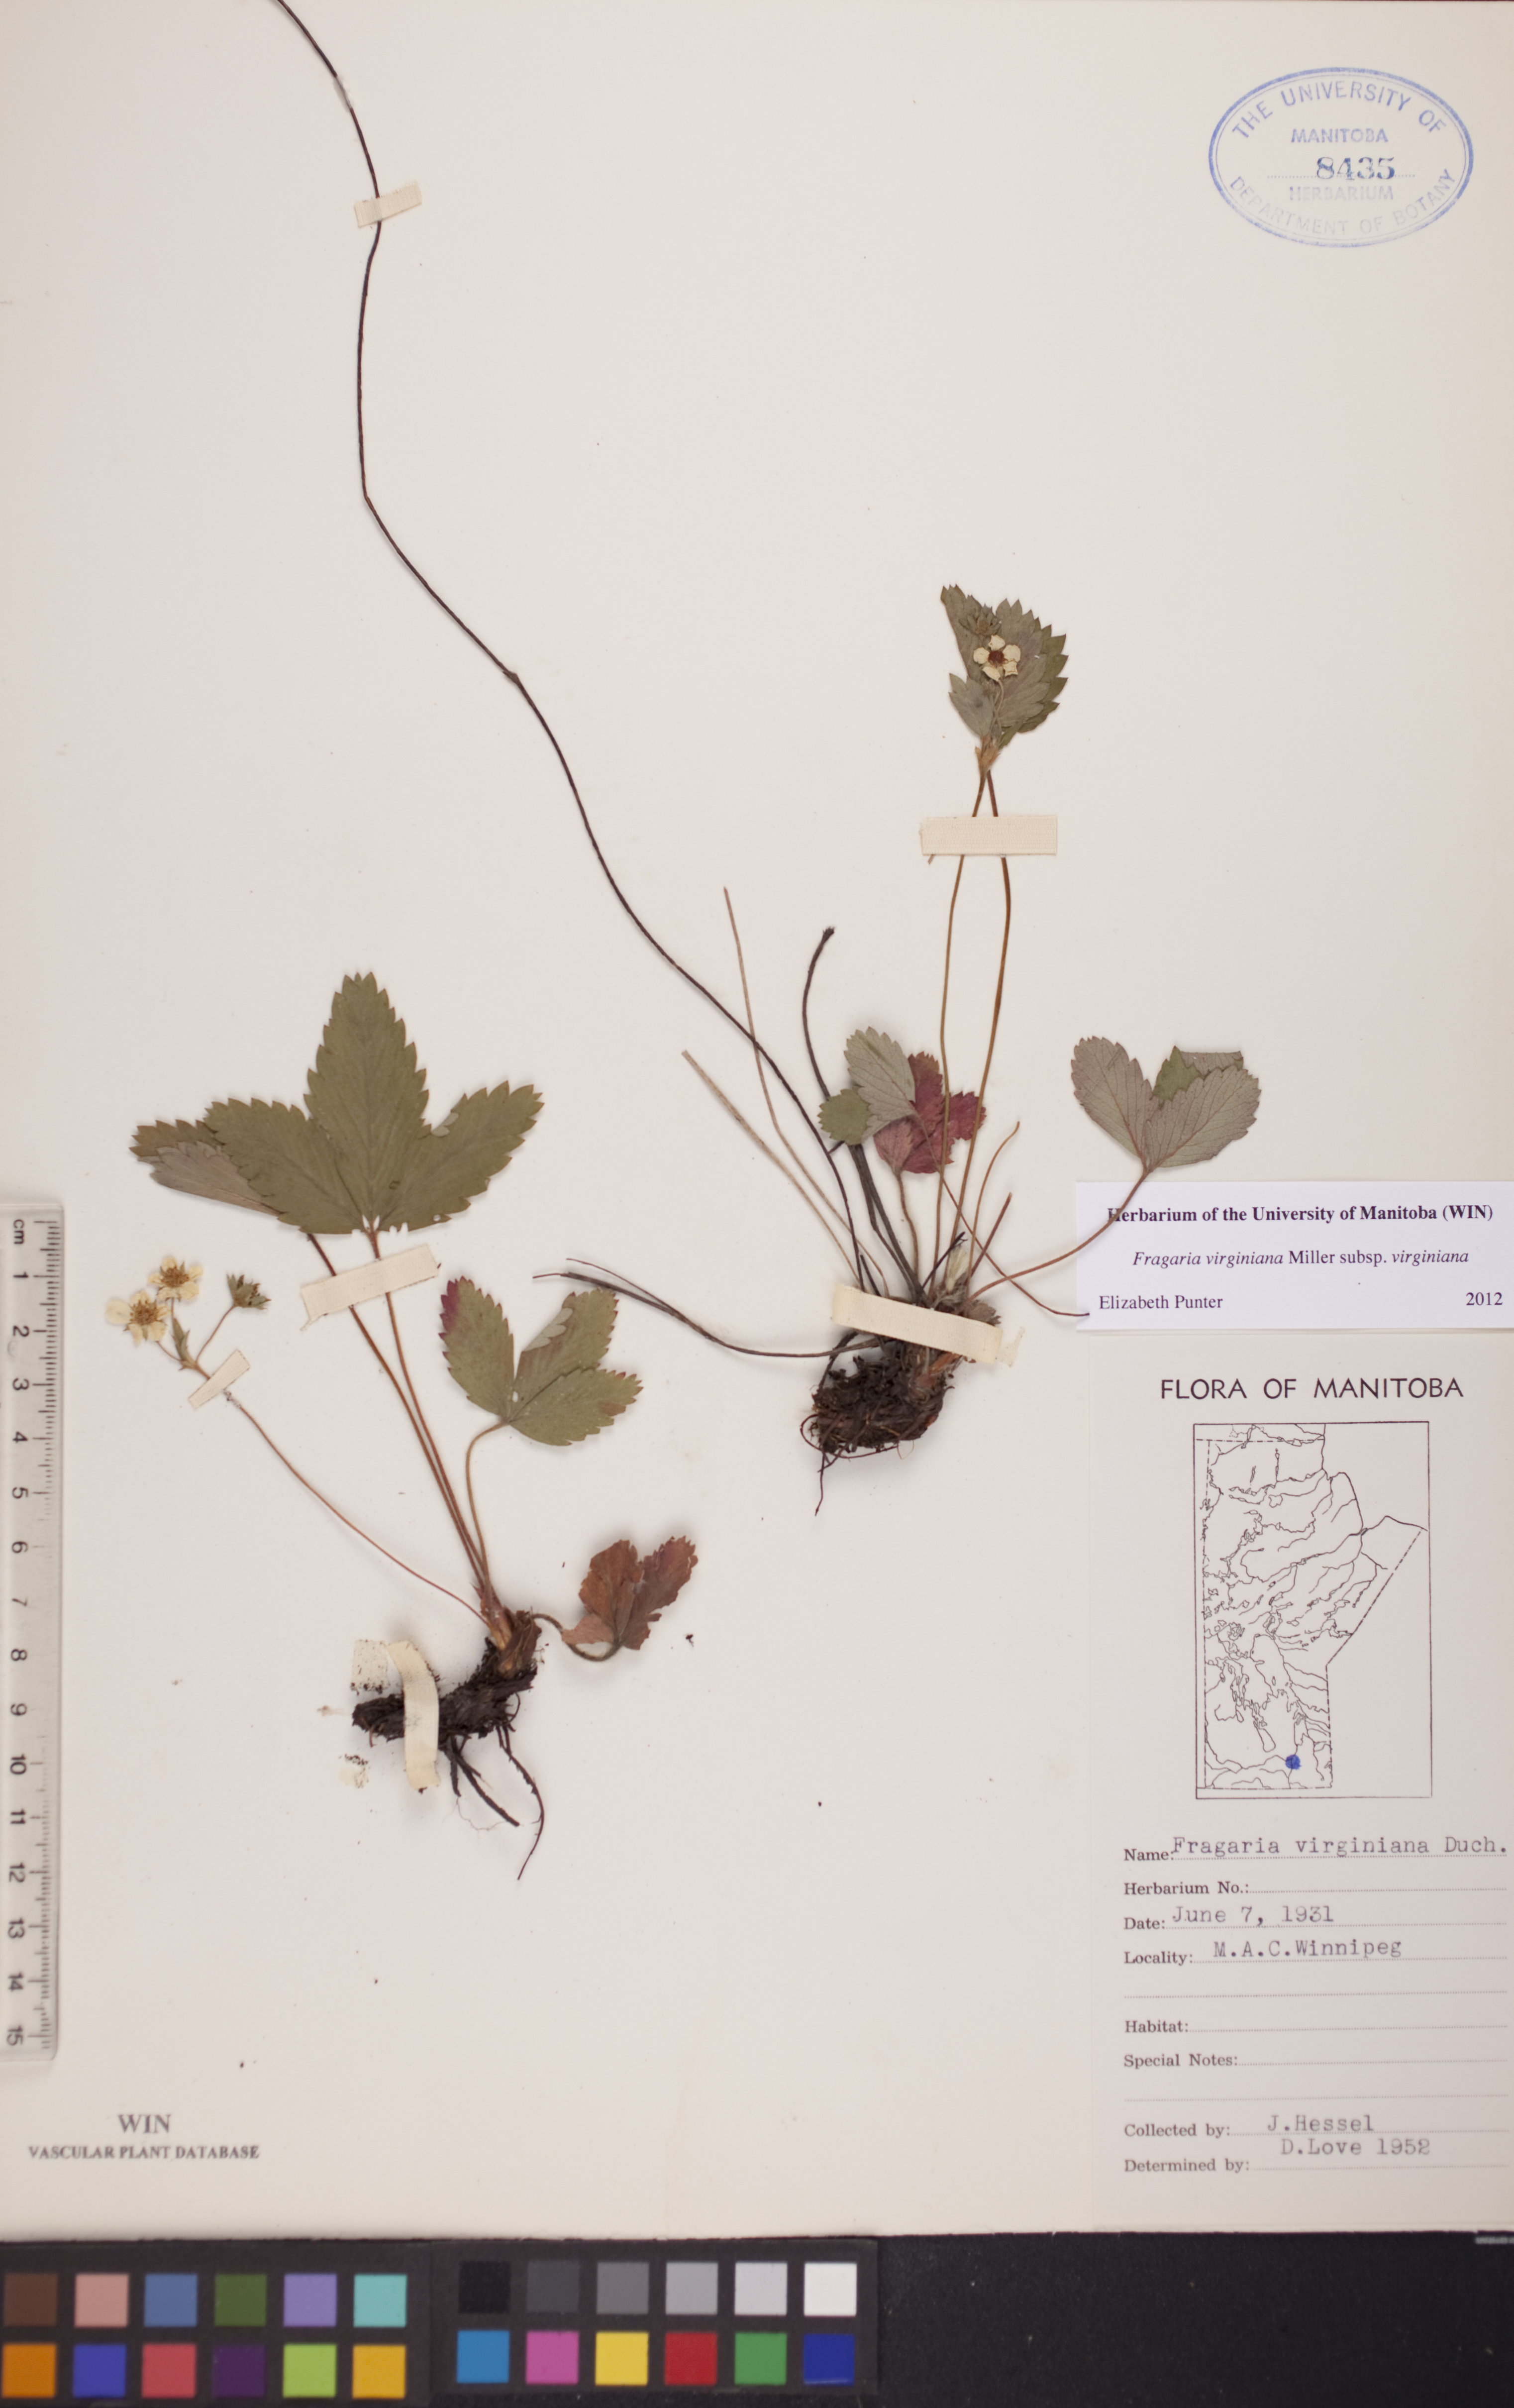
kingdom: Plantae
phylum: Tracheophyta
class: Magnoliopsida
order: Rosales
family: Rosaceae
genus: Fragaria
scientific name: Fragaria virginiana
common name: Thickleaved wild strawberry
